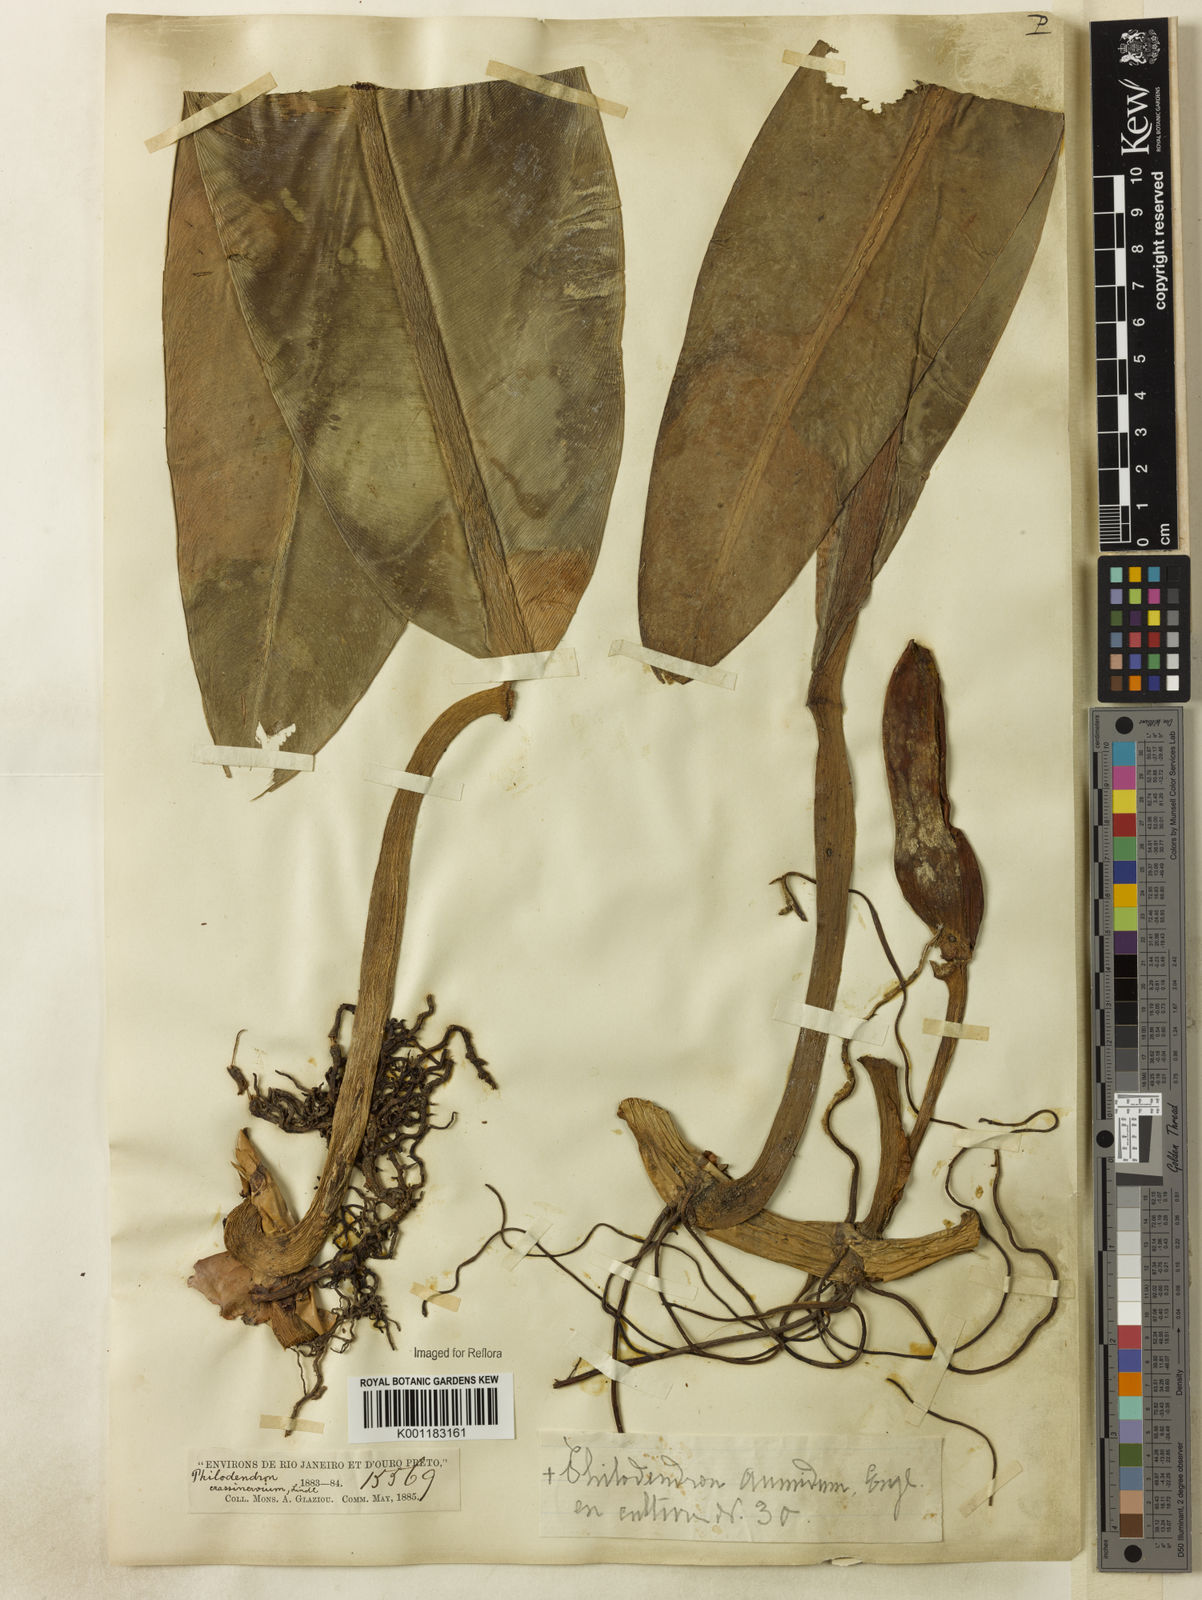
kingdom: Plantae
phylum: Tracheophyta
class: Liliopsida
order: Alismatales
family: Araceae
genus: Philodendron
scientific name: Philodendron crassinervium
